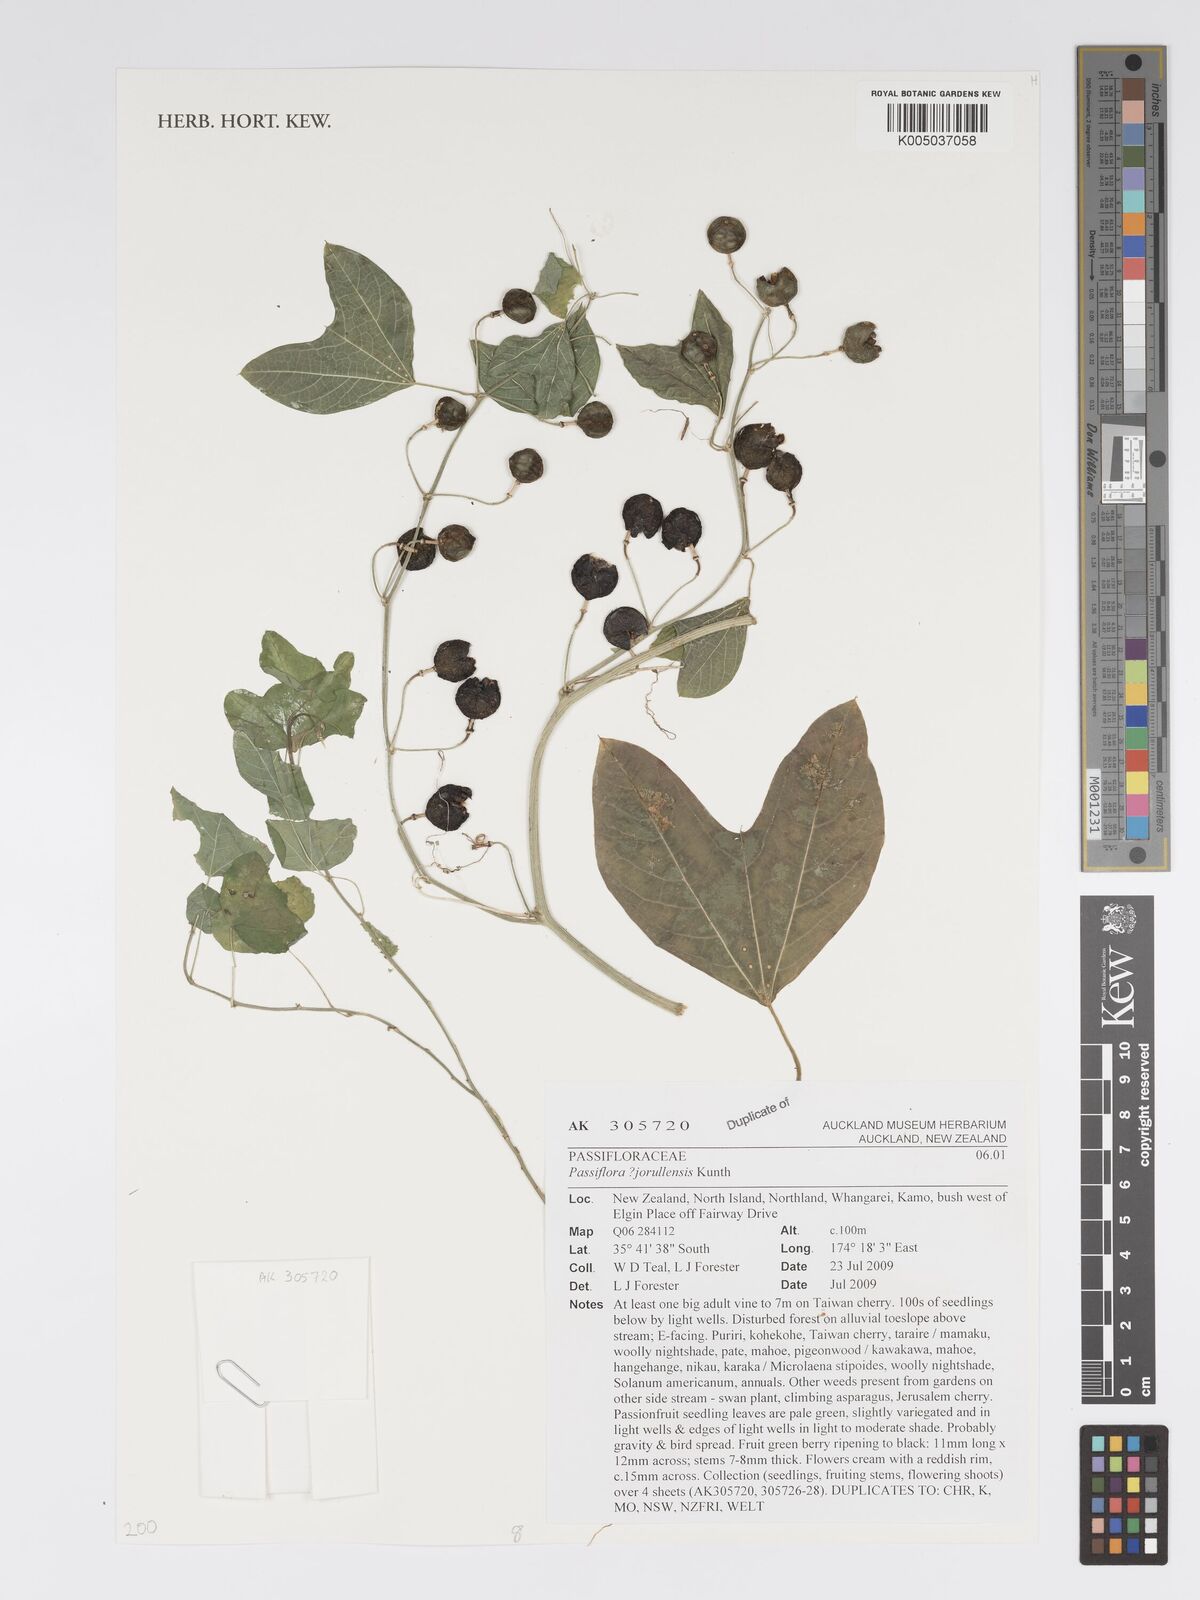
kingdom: Plantae
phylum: Tracheophyta
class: Magnoliopsida
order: Malpighiales
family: Passifloraceae
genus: Passiflora
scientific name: Passiflora jorullensis
